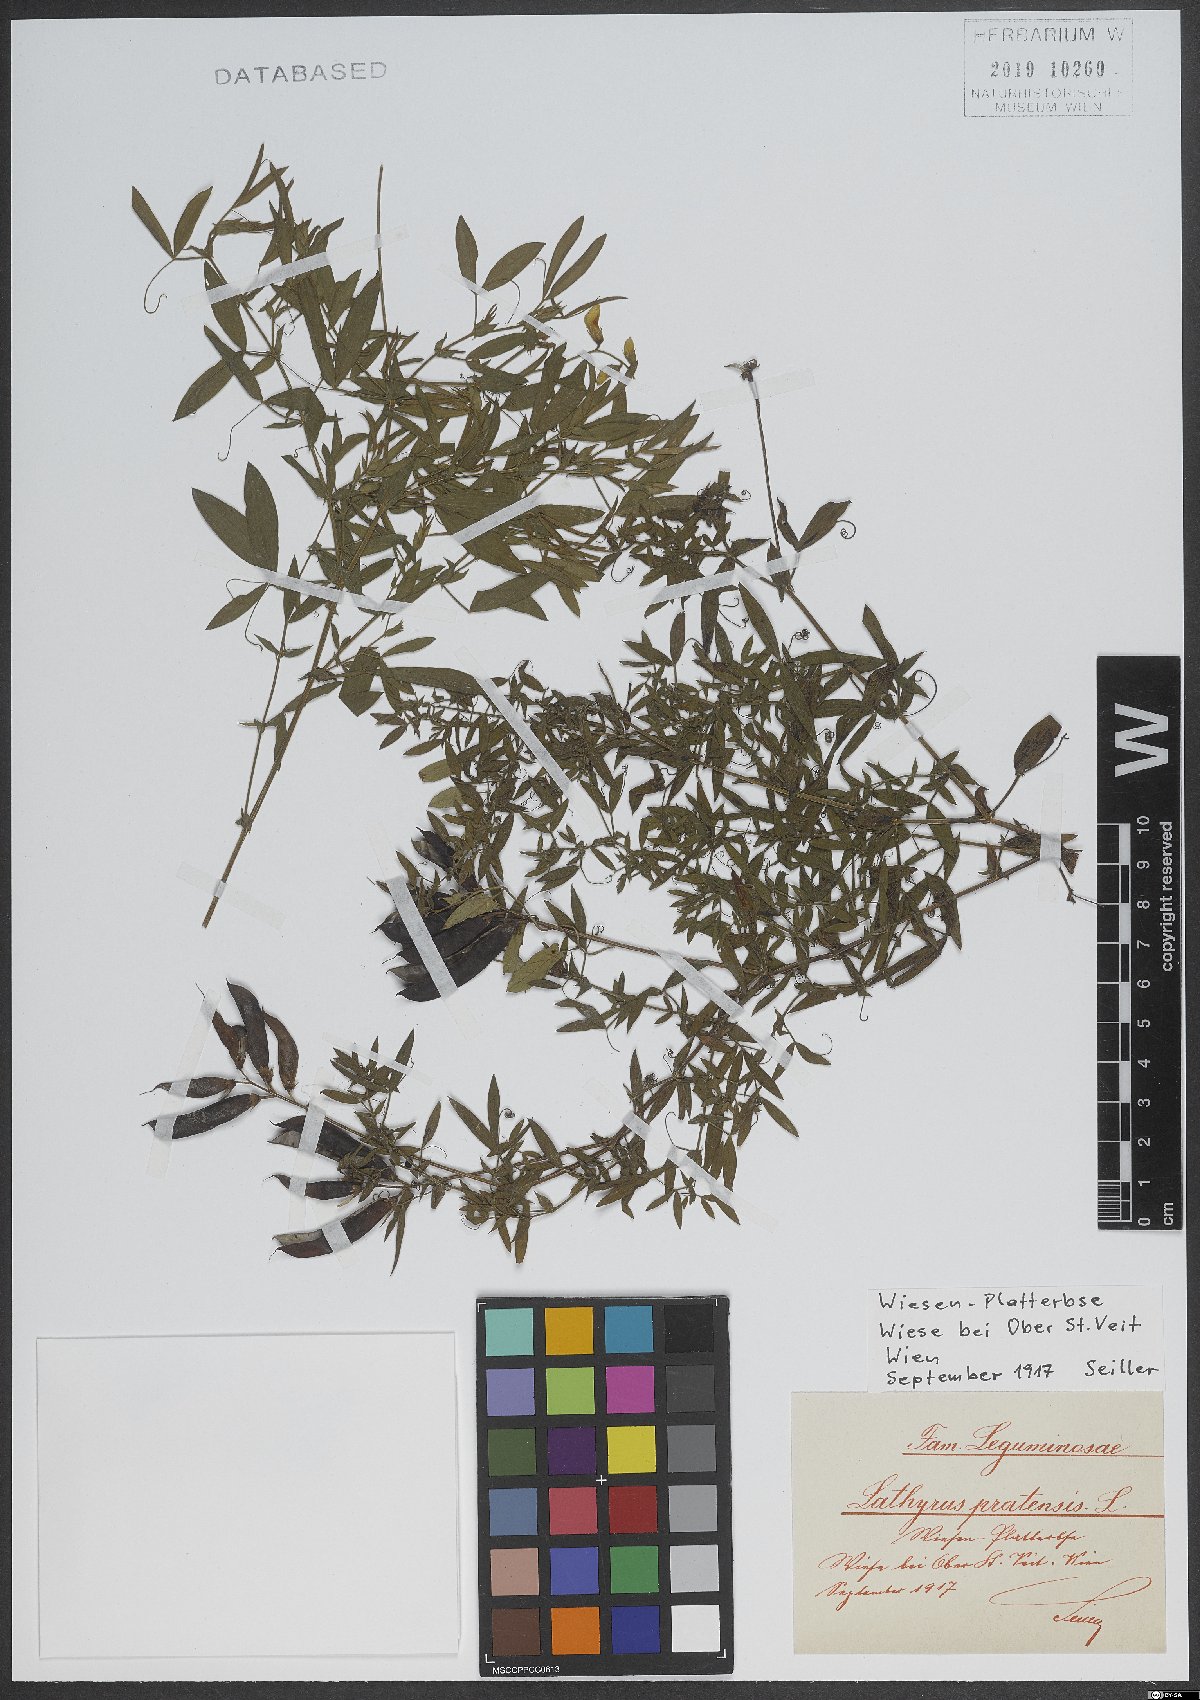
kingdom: Plantae
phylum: Tracheophyta
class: Magnoliopsida
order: Fabales
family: Fabaceae
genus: Lathyrus
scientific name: Lathyrus pratensis
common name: Meadow vetchling
